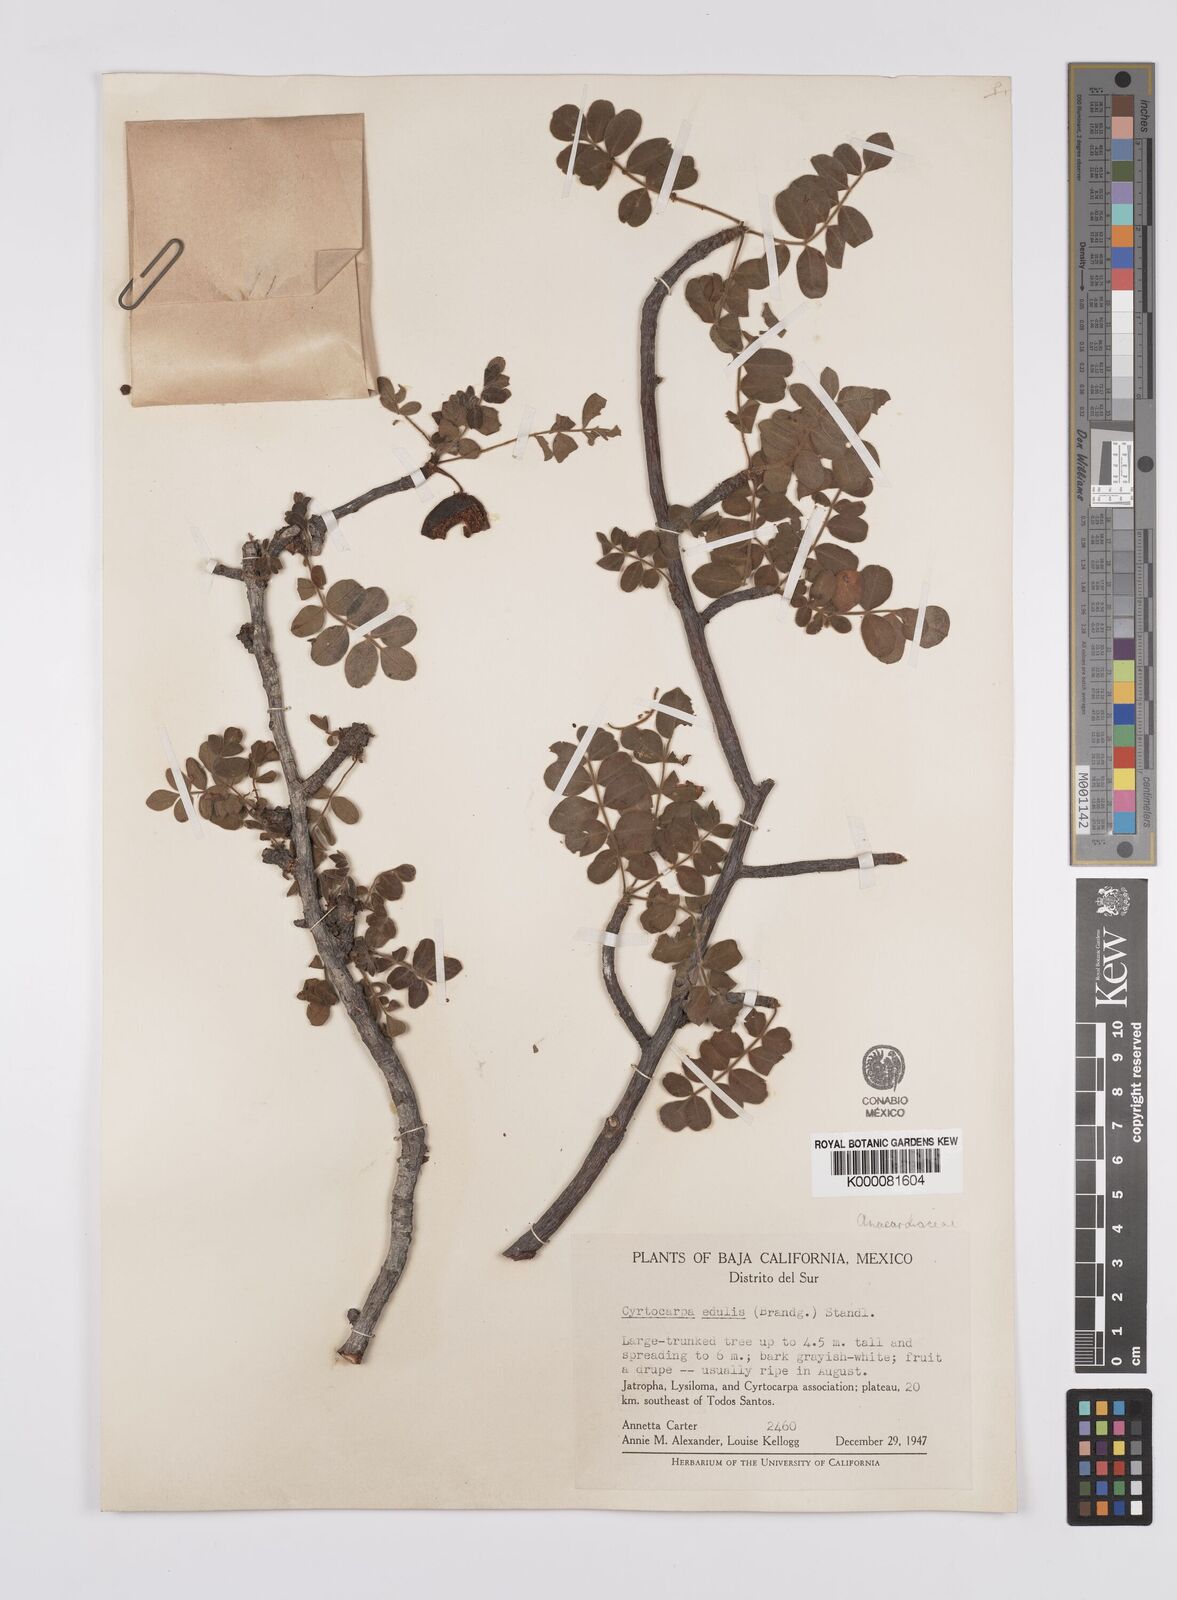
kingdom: Plantae
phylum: Tracheophyta
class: Magnoliopsida
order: Sapindales
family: Anacardiaceae
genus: Cyrtocarpa
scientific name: Cyrtocarpa edulis
